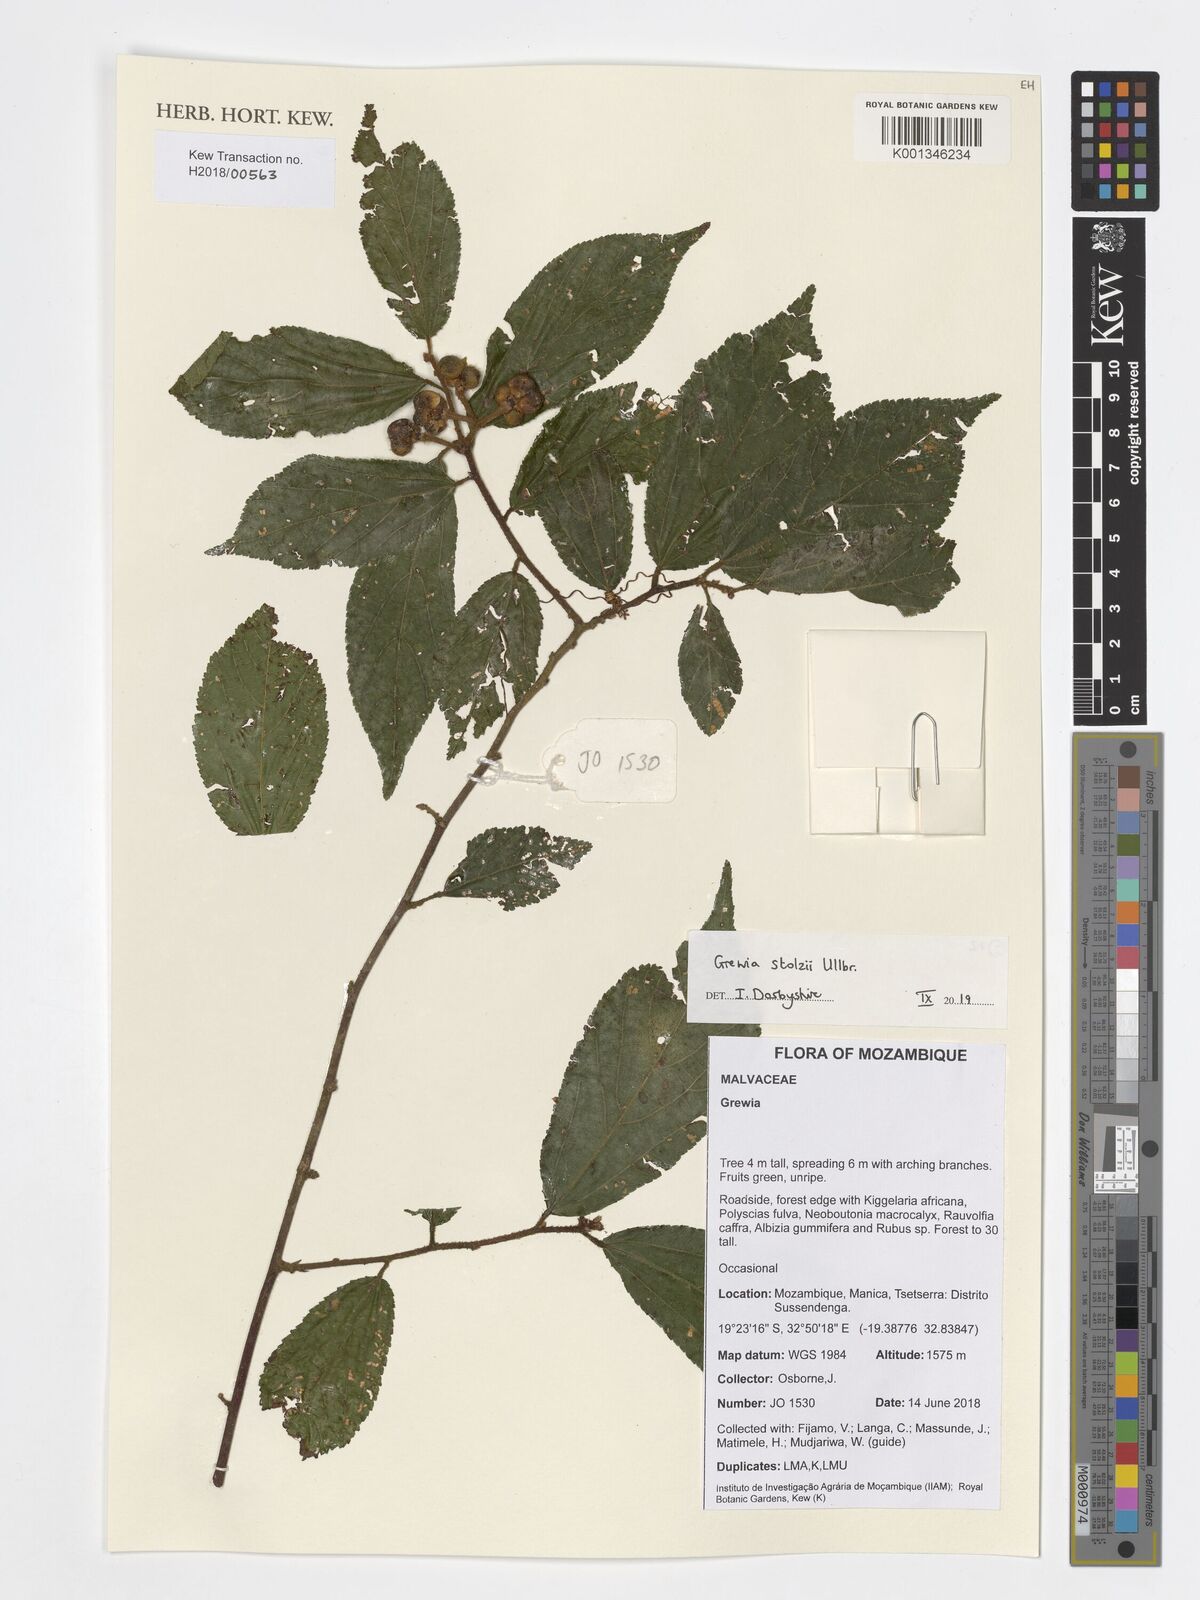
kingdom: Plantae
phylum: Tracheophyta
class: Magnoliopsida
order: Malvales
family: Malvaceae
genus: Grewia
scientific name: Grewia stolzii
